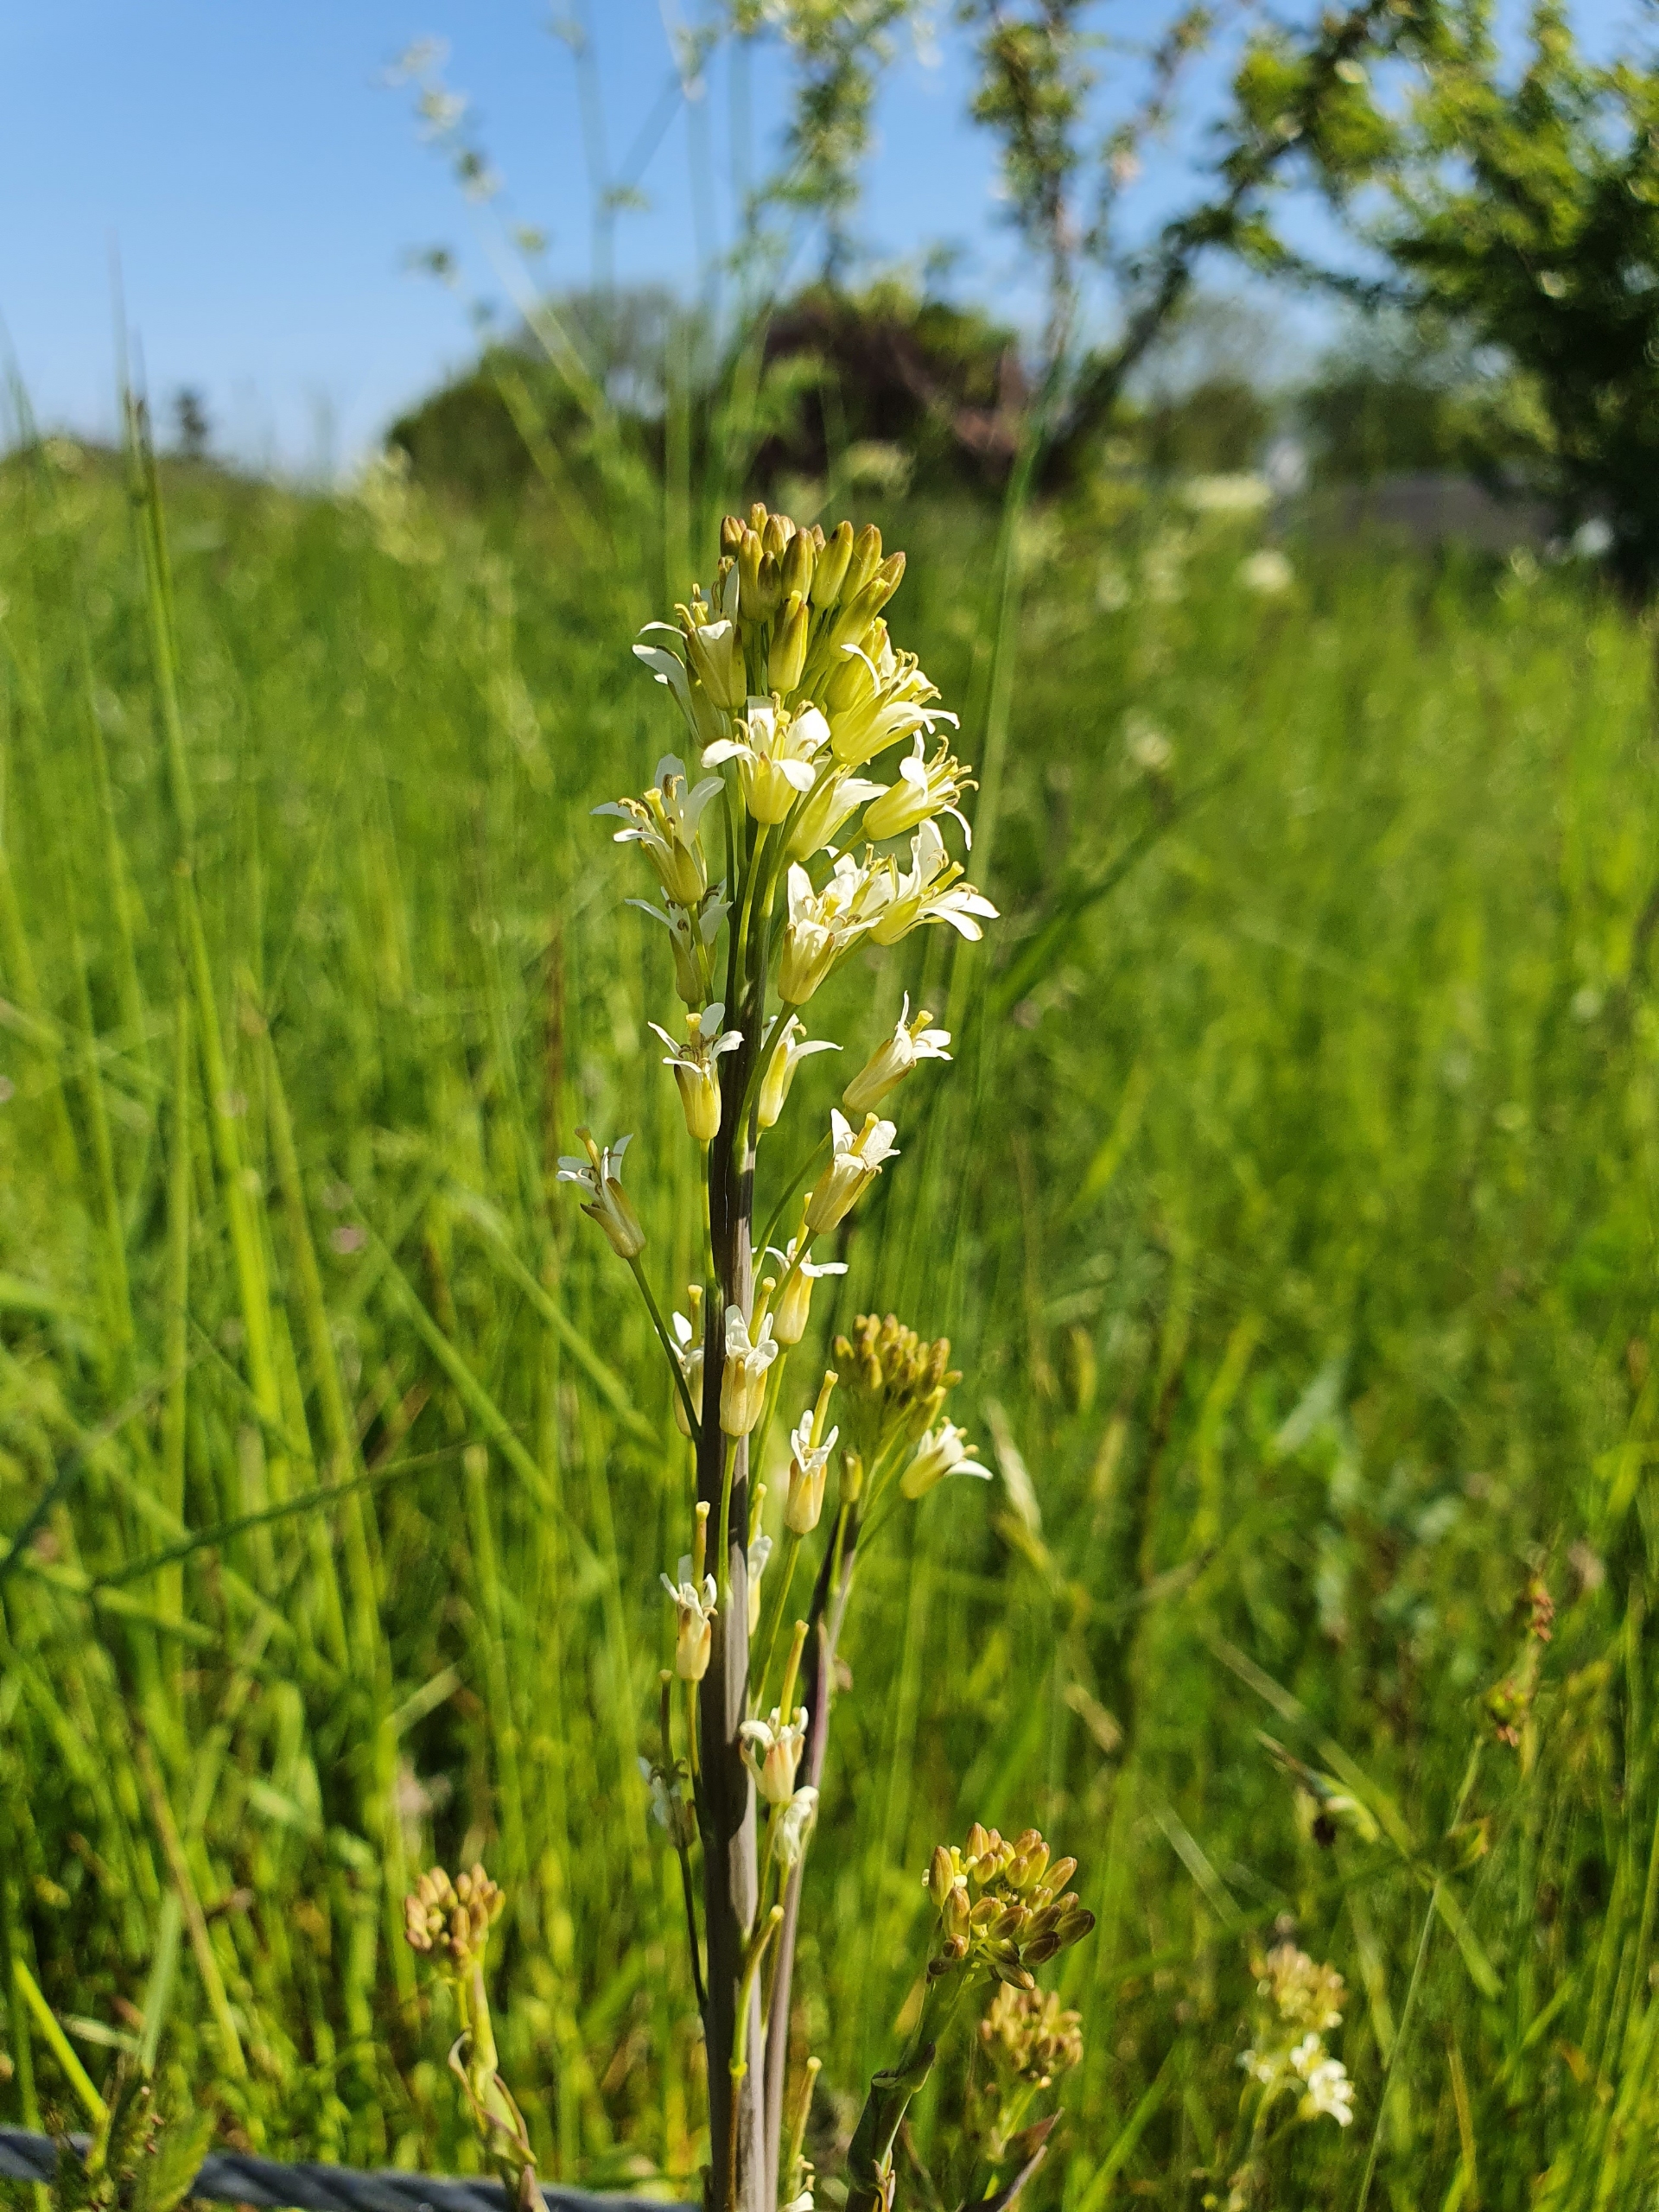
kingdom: Plantae
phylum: Tracheophyta
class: Magnoliopsida
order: Brassicales
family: Brassicaceae
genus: Turritis
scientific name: Turritis glabra
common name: Tårnurt
